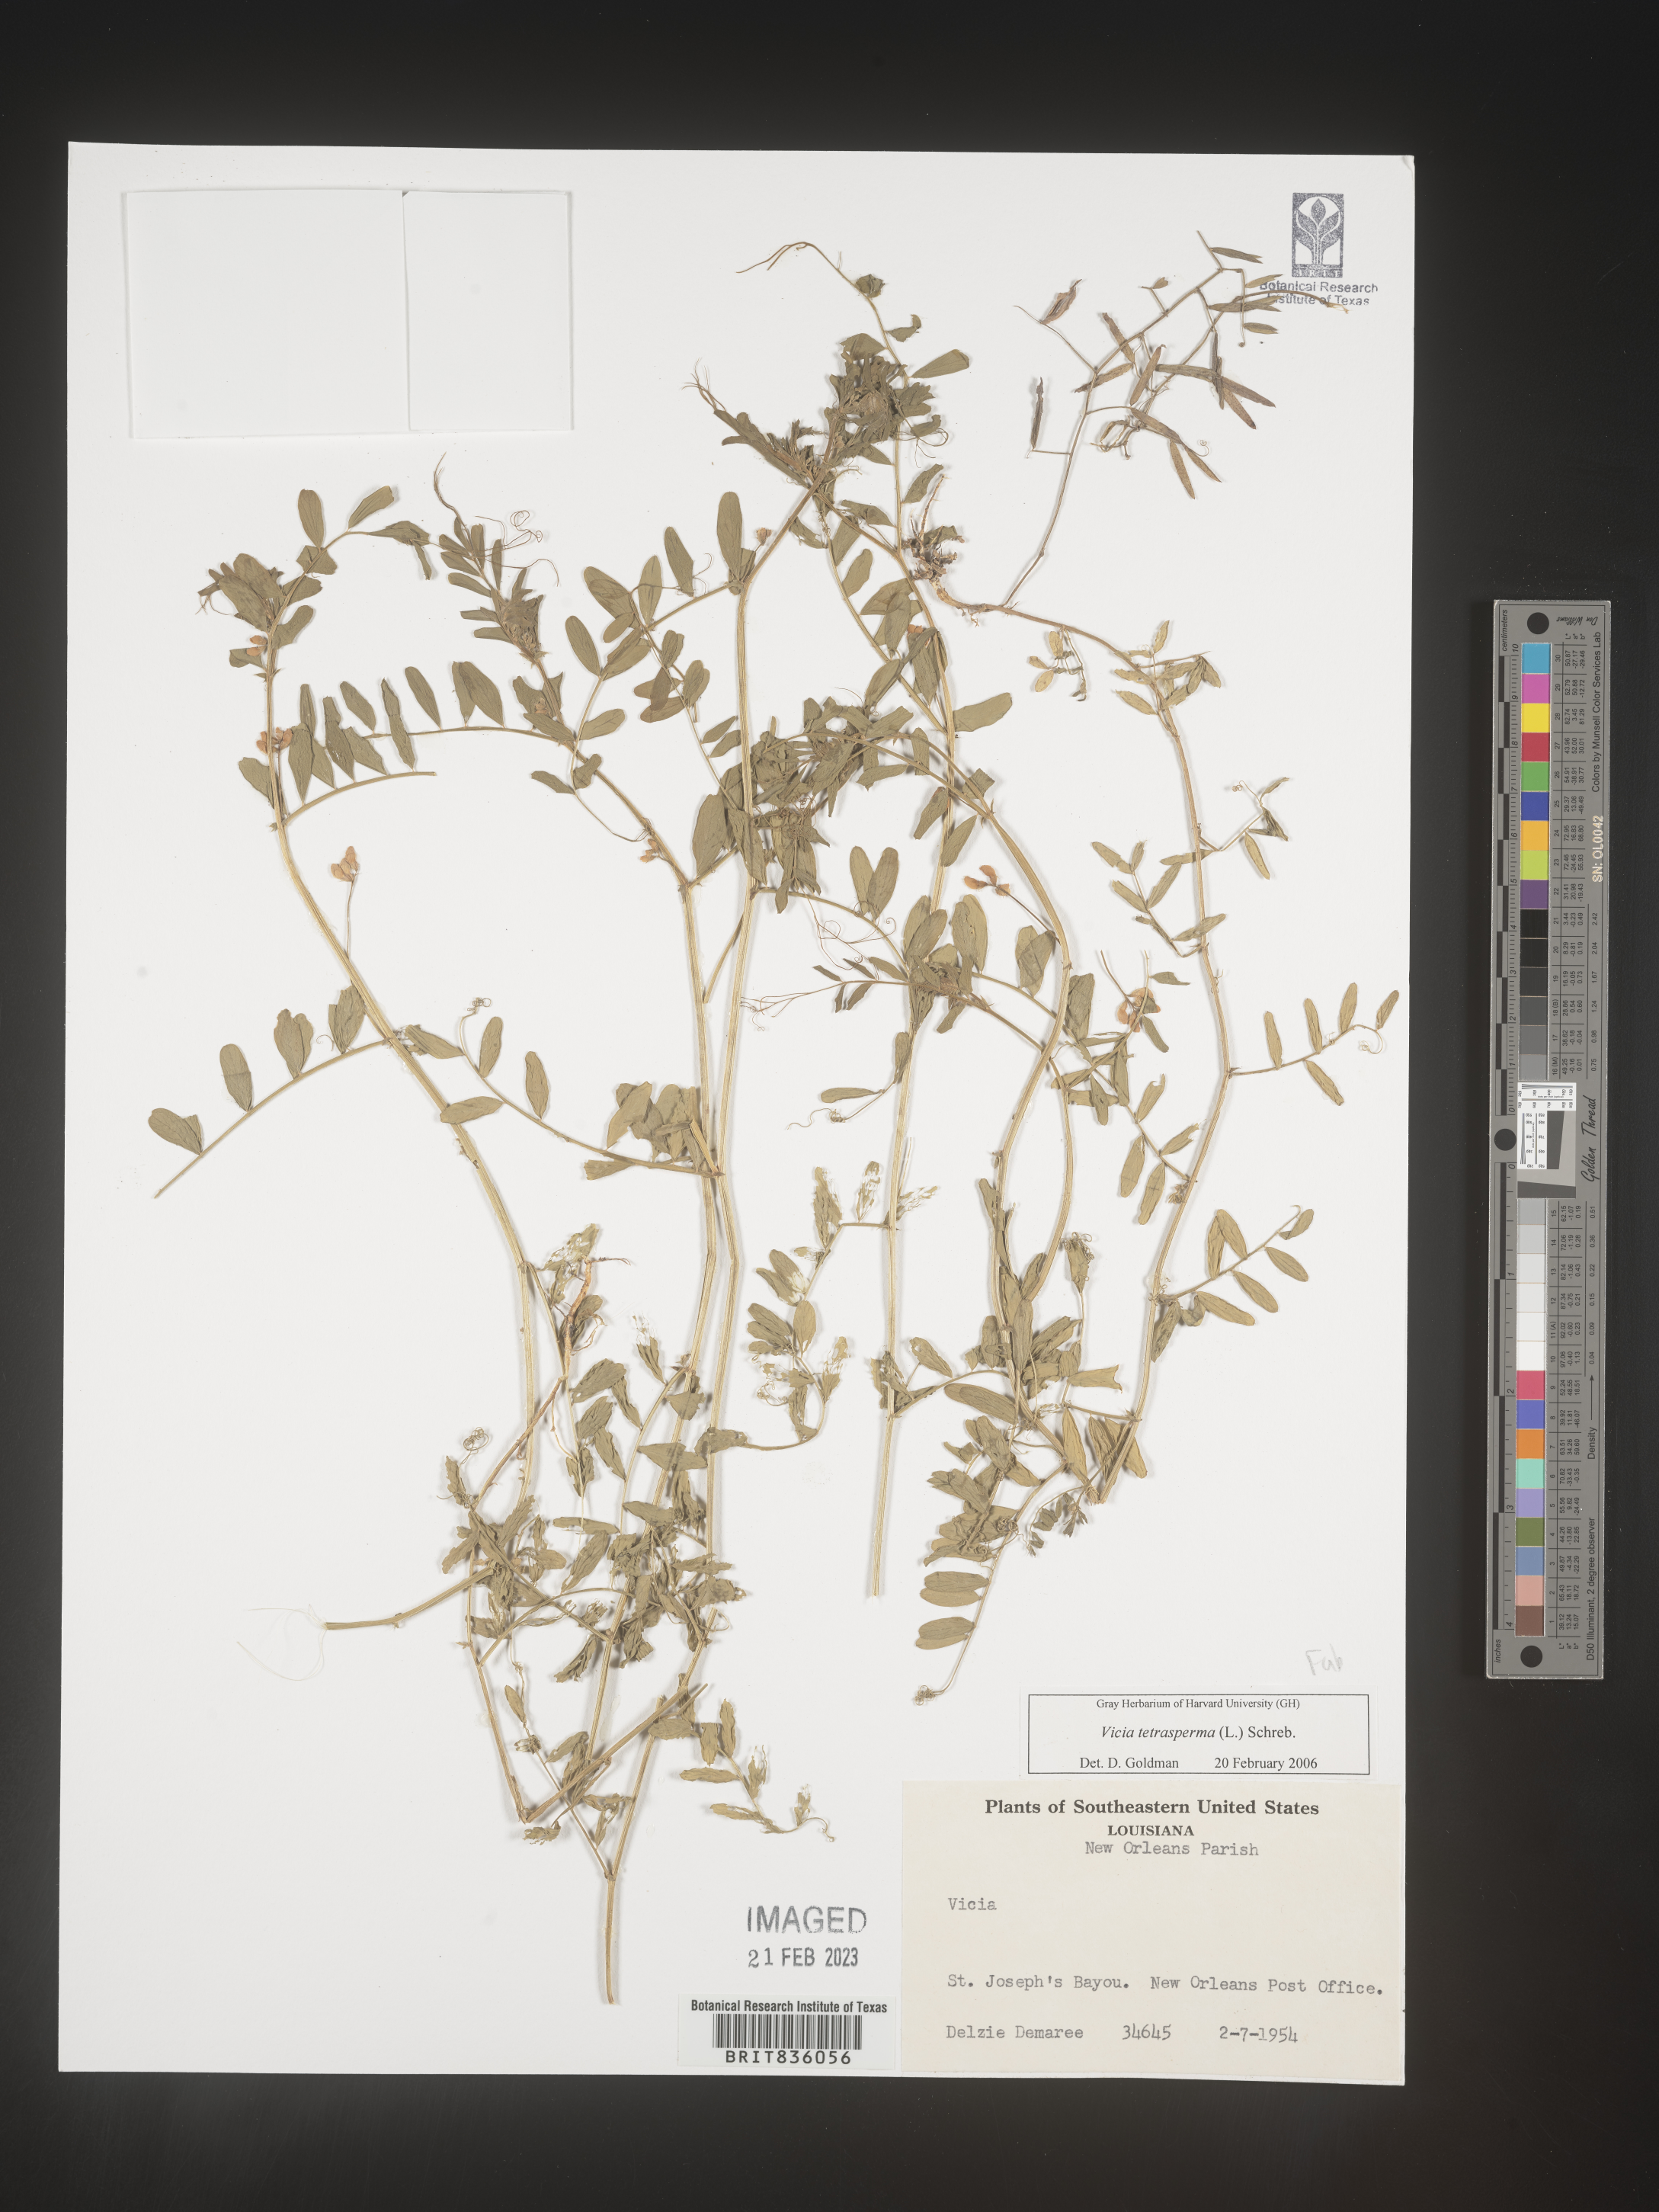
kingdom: Plantae
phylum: Tracheophyta
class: Magnoliopsida
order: Fabales
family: Fabaceae
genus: Vicia
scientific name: Vicia tetrasperma
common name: Smooth tare
